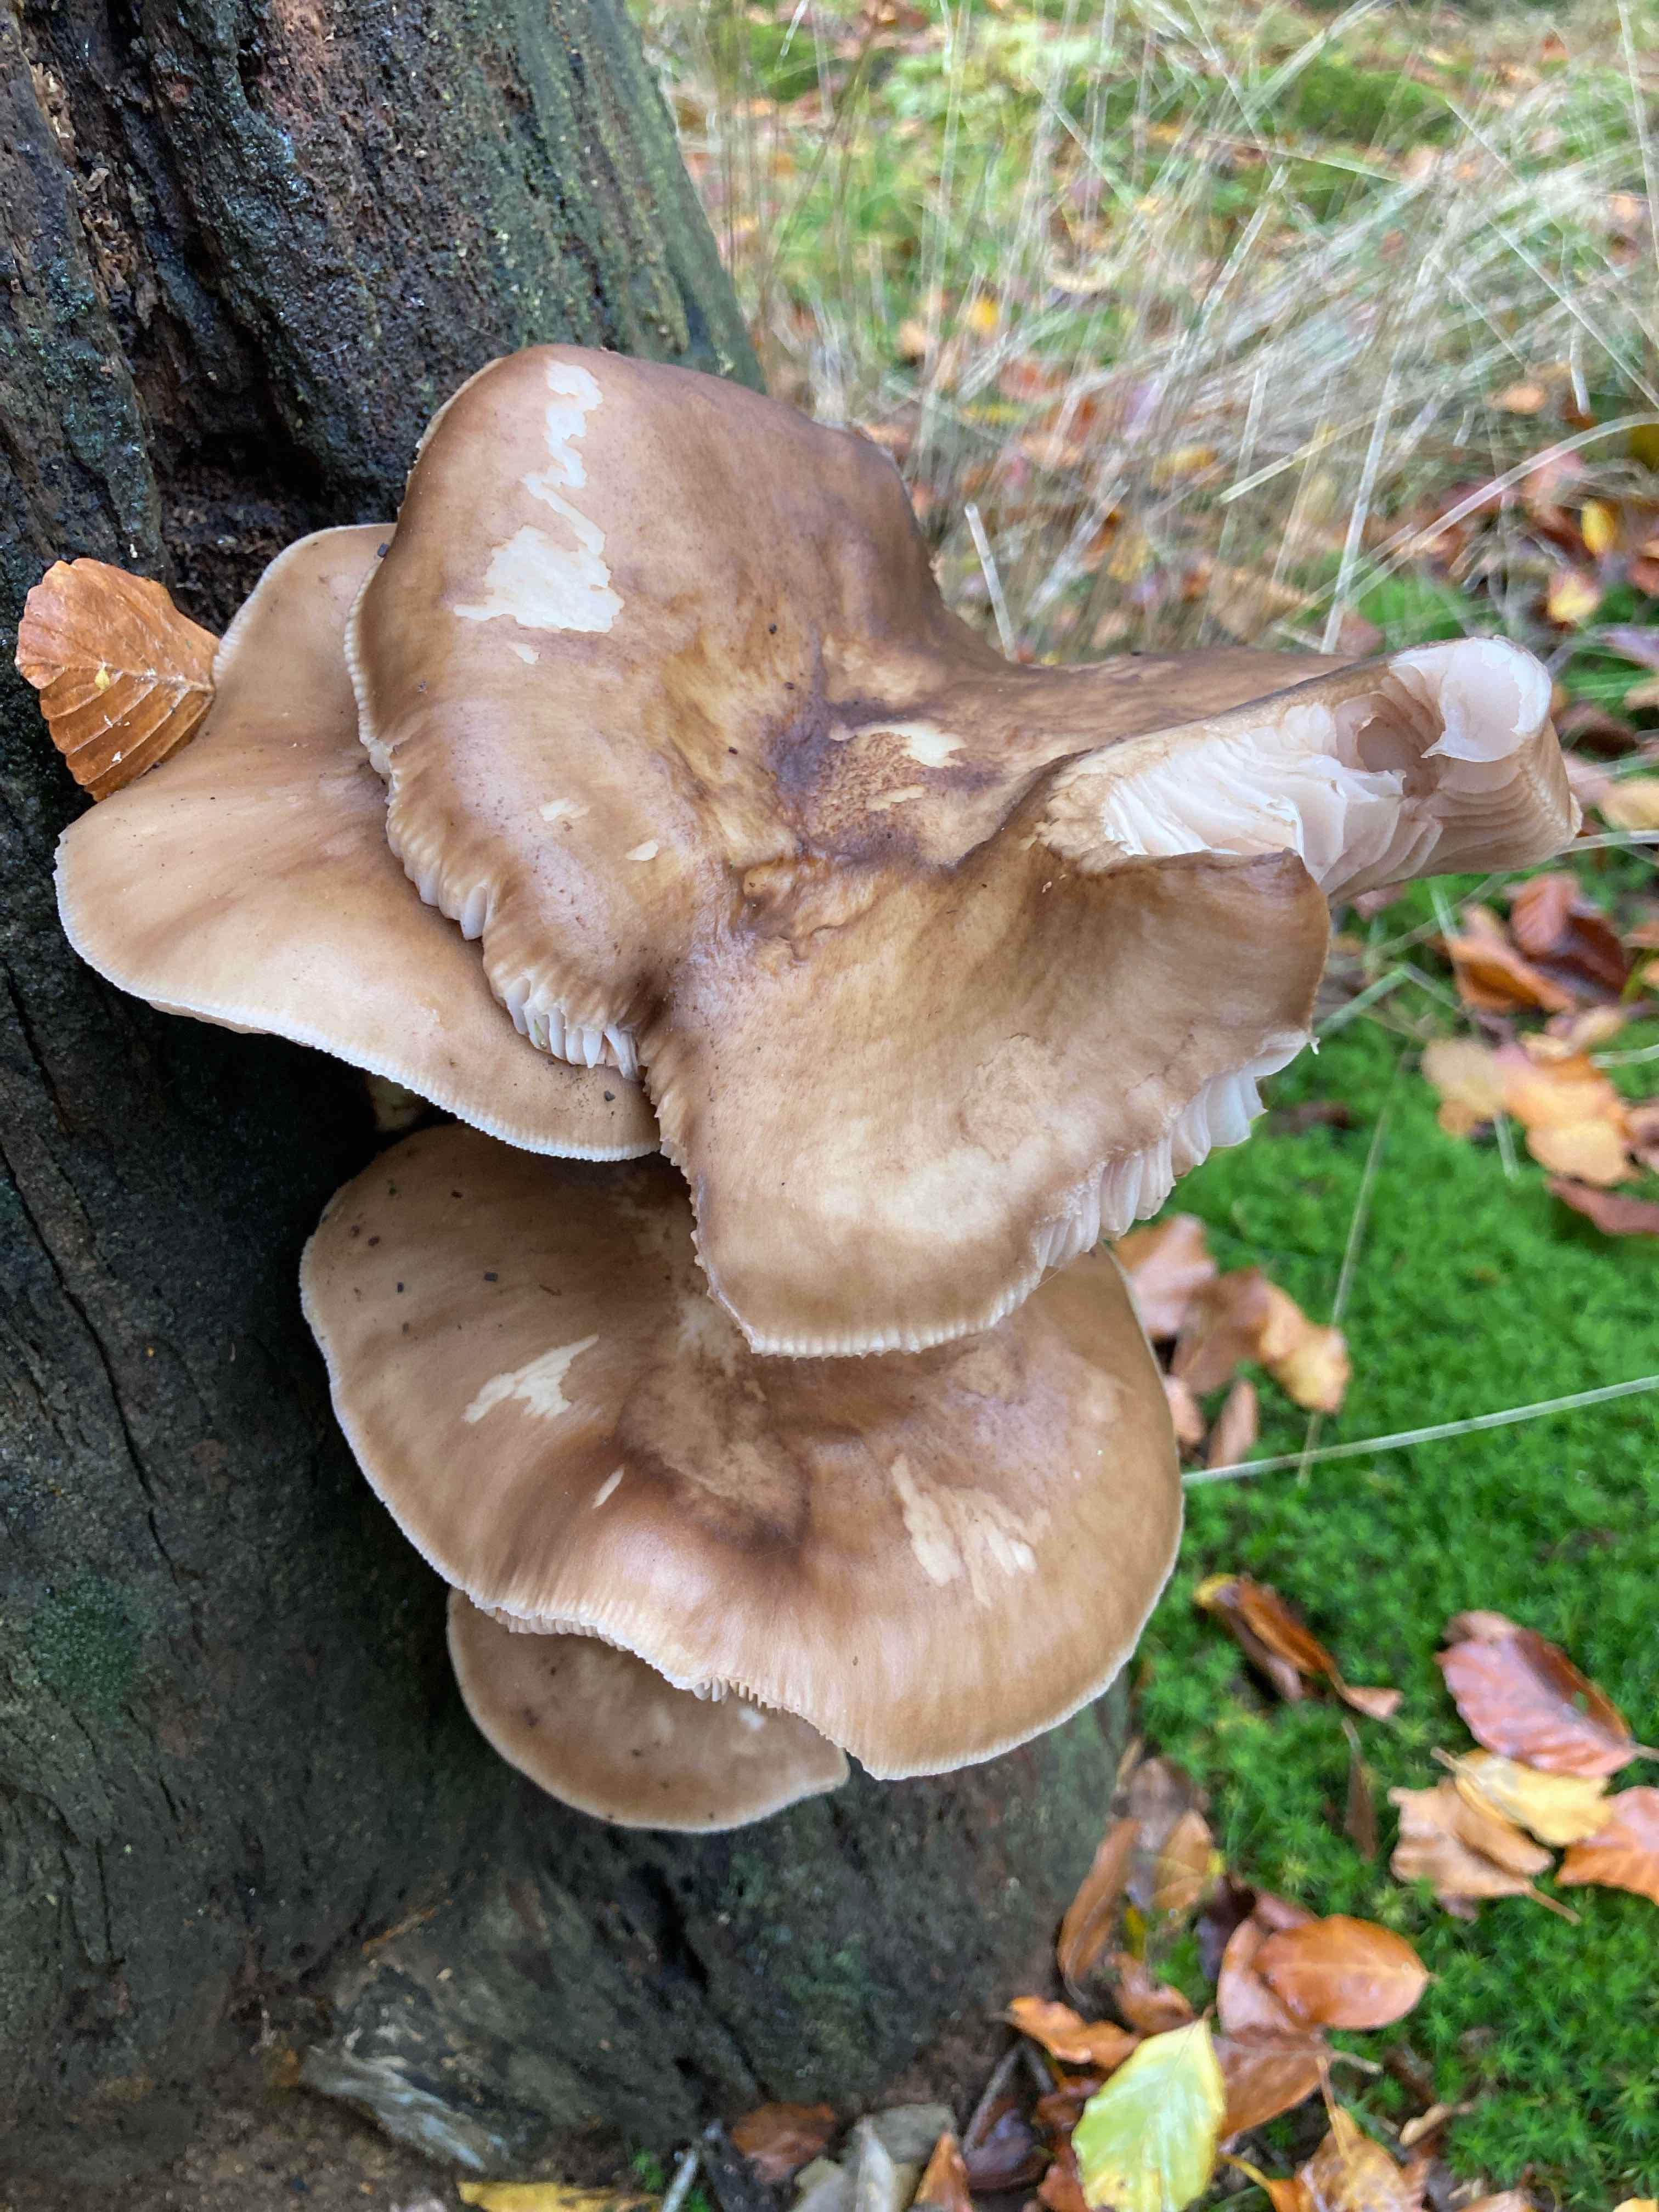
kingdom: Fungi
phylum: Basidiomycota
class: Agaricomycetes
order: Agaricales
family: Pluteaceae
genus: Pluteus
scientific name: Pluteus cervinus
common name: sodfarvet skærmhat
